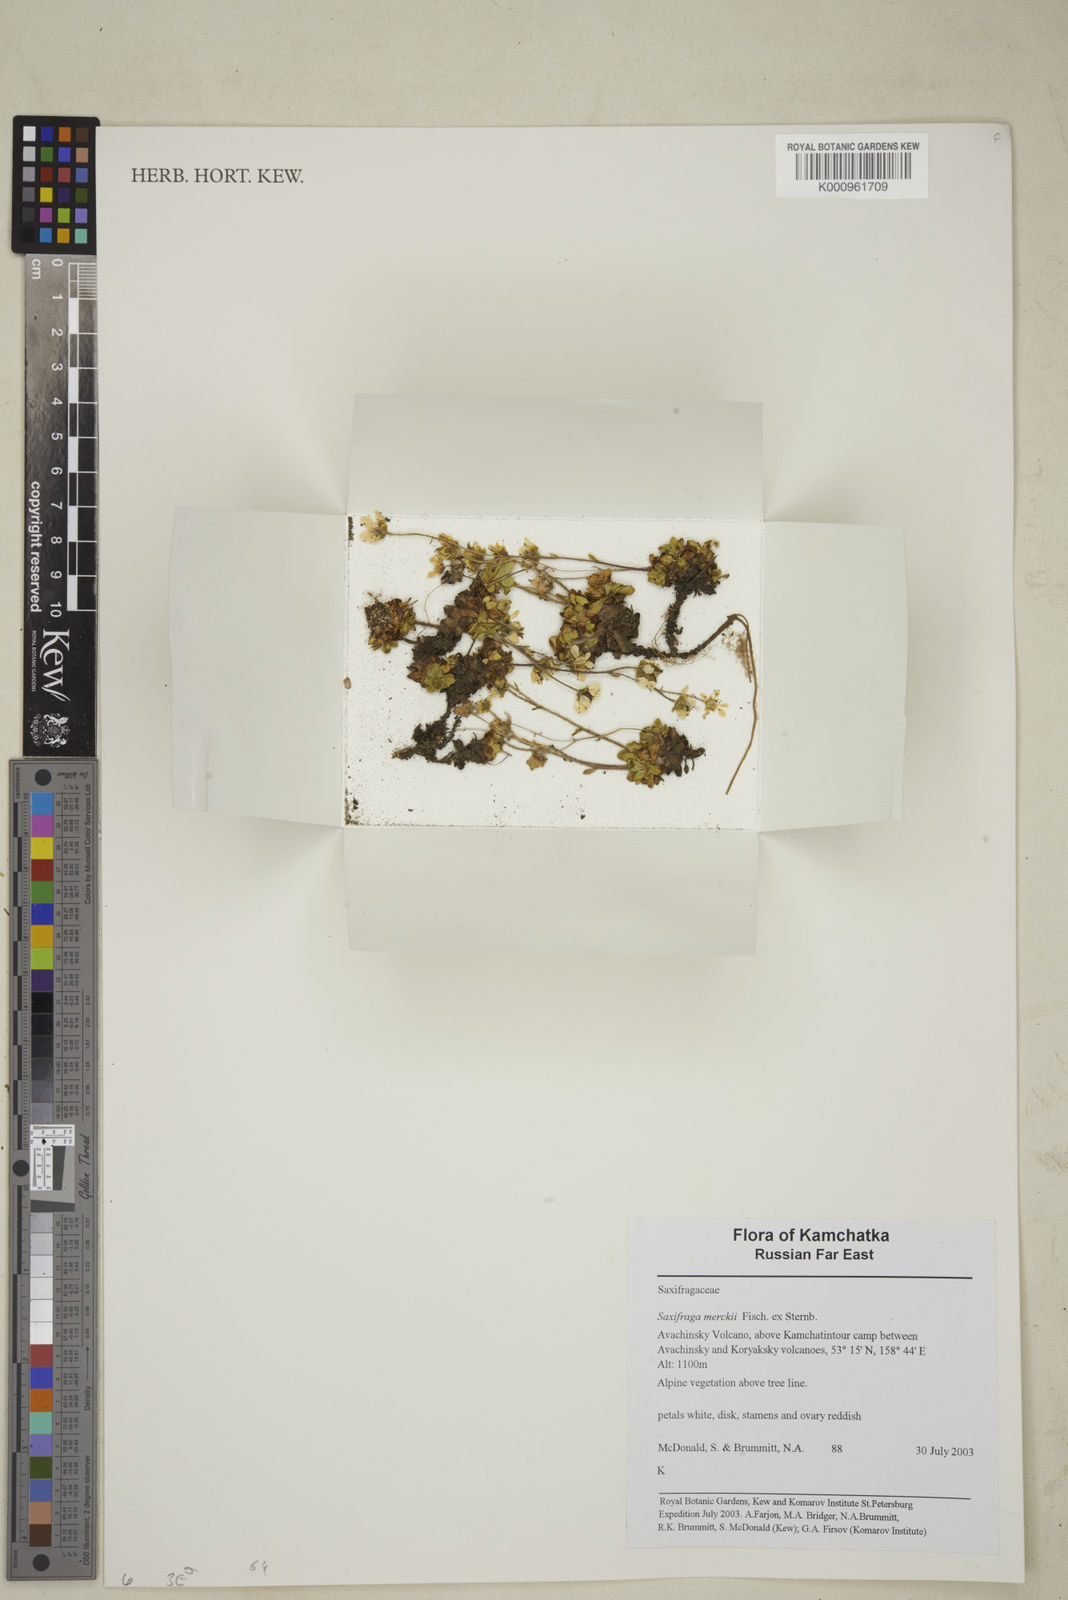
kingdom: Plantae
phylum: Tracheophyta
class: Magnoliopsida
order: Saxifragales
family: Saxifragaceae
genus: Micranthes
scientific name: Micranthes merkii
